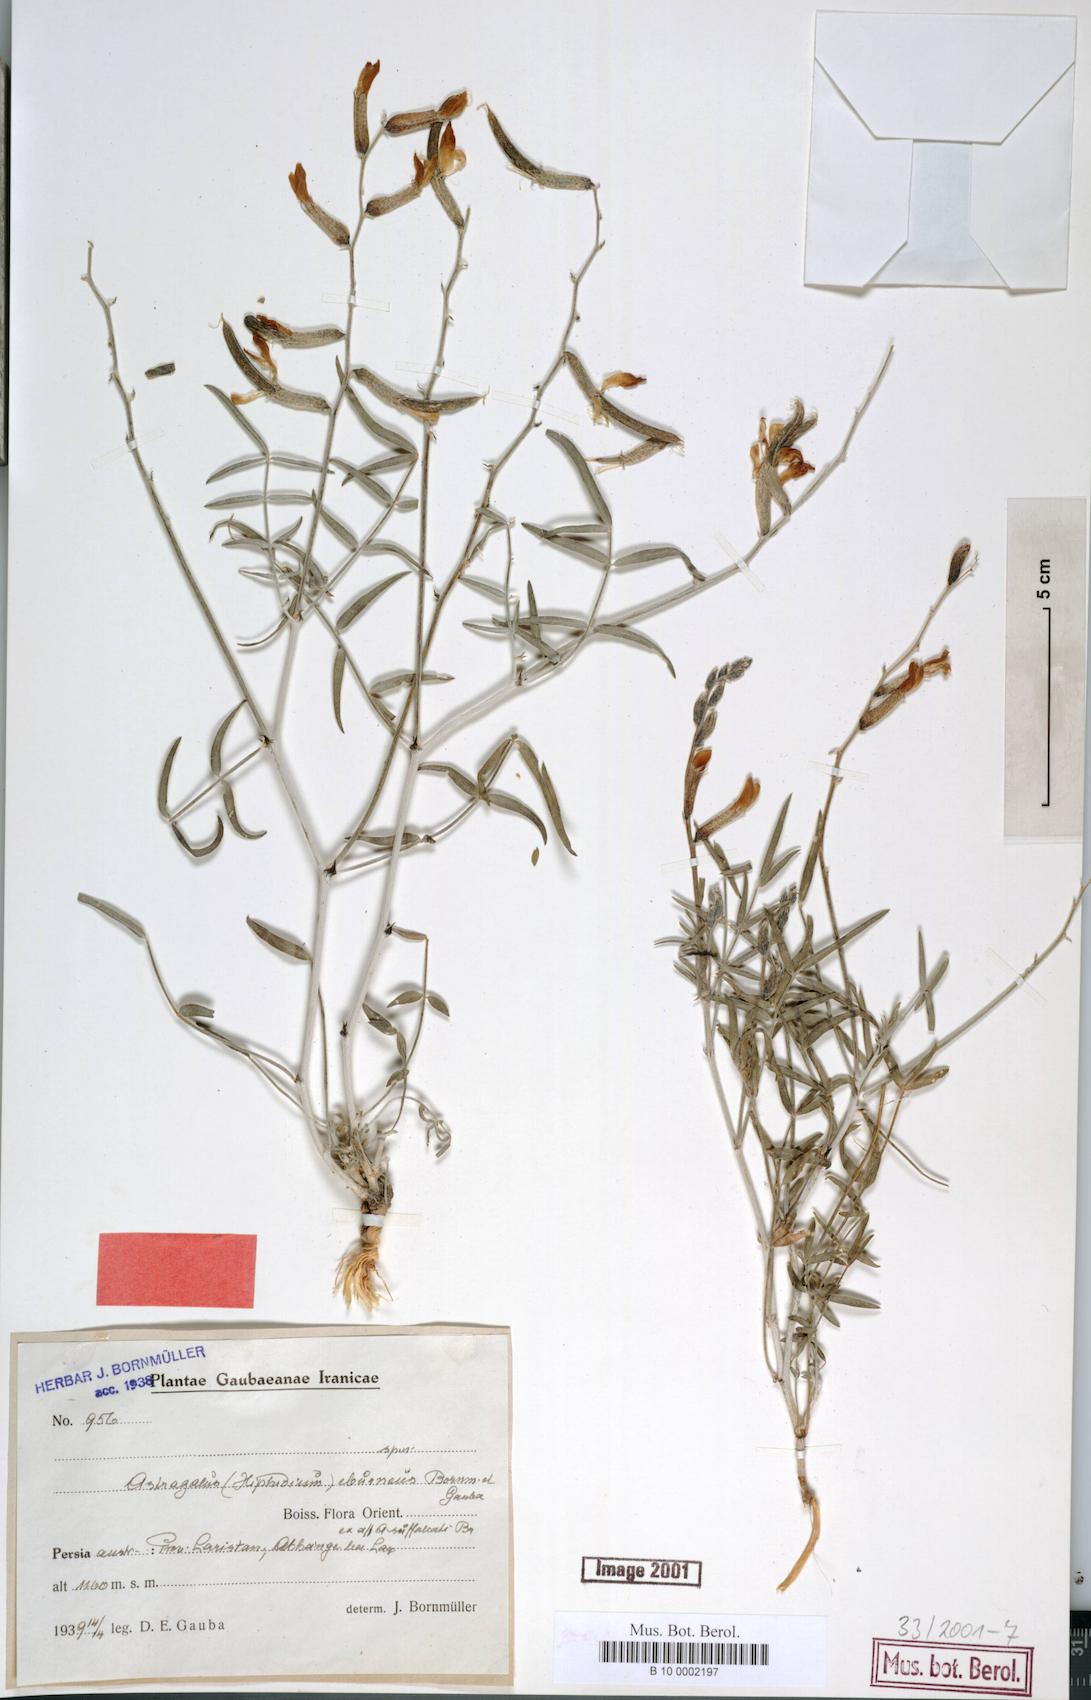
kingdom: Plantae
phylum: Tracheophyta
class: Magnoliopsida
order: Fabales
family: Fabaceae
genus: Astragalus
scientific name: Astragalus eburneus
